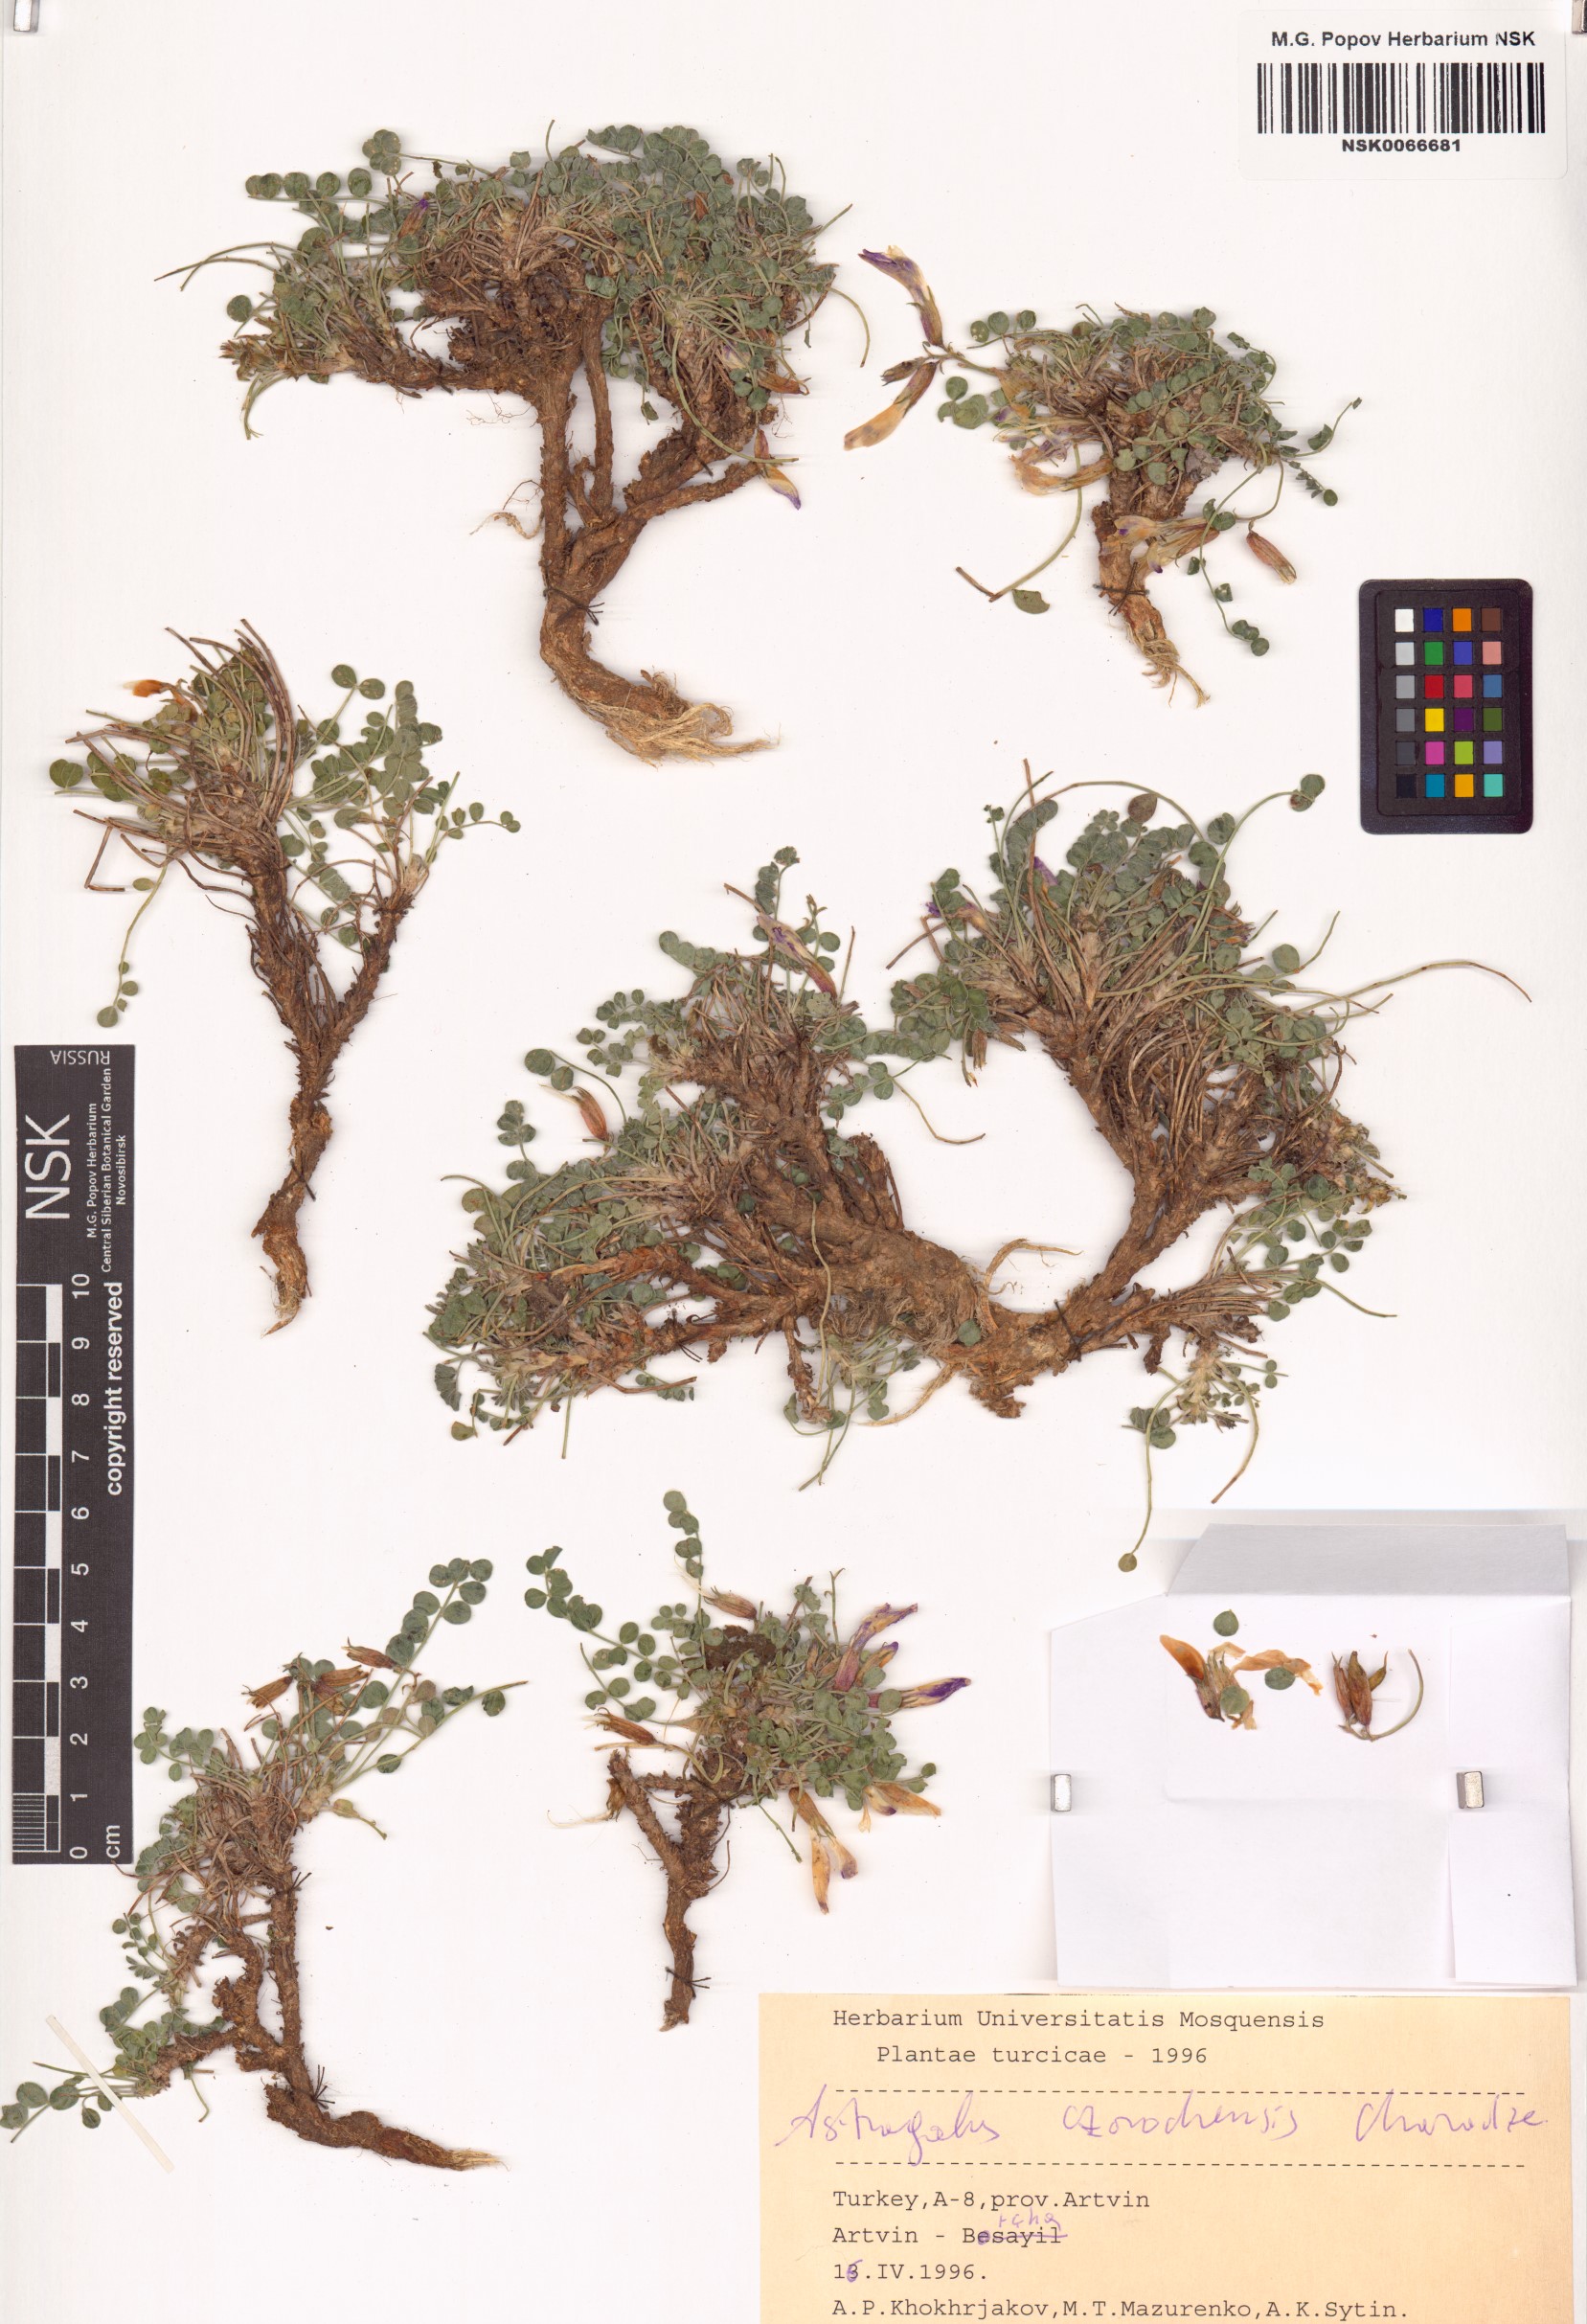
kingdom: Plantae
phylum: Tracheophyta
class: Magnoliopsida
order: Fabales
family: Fabaceae
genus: Astragalus
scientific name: Astragalus czorochensis
